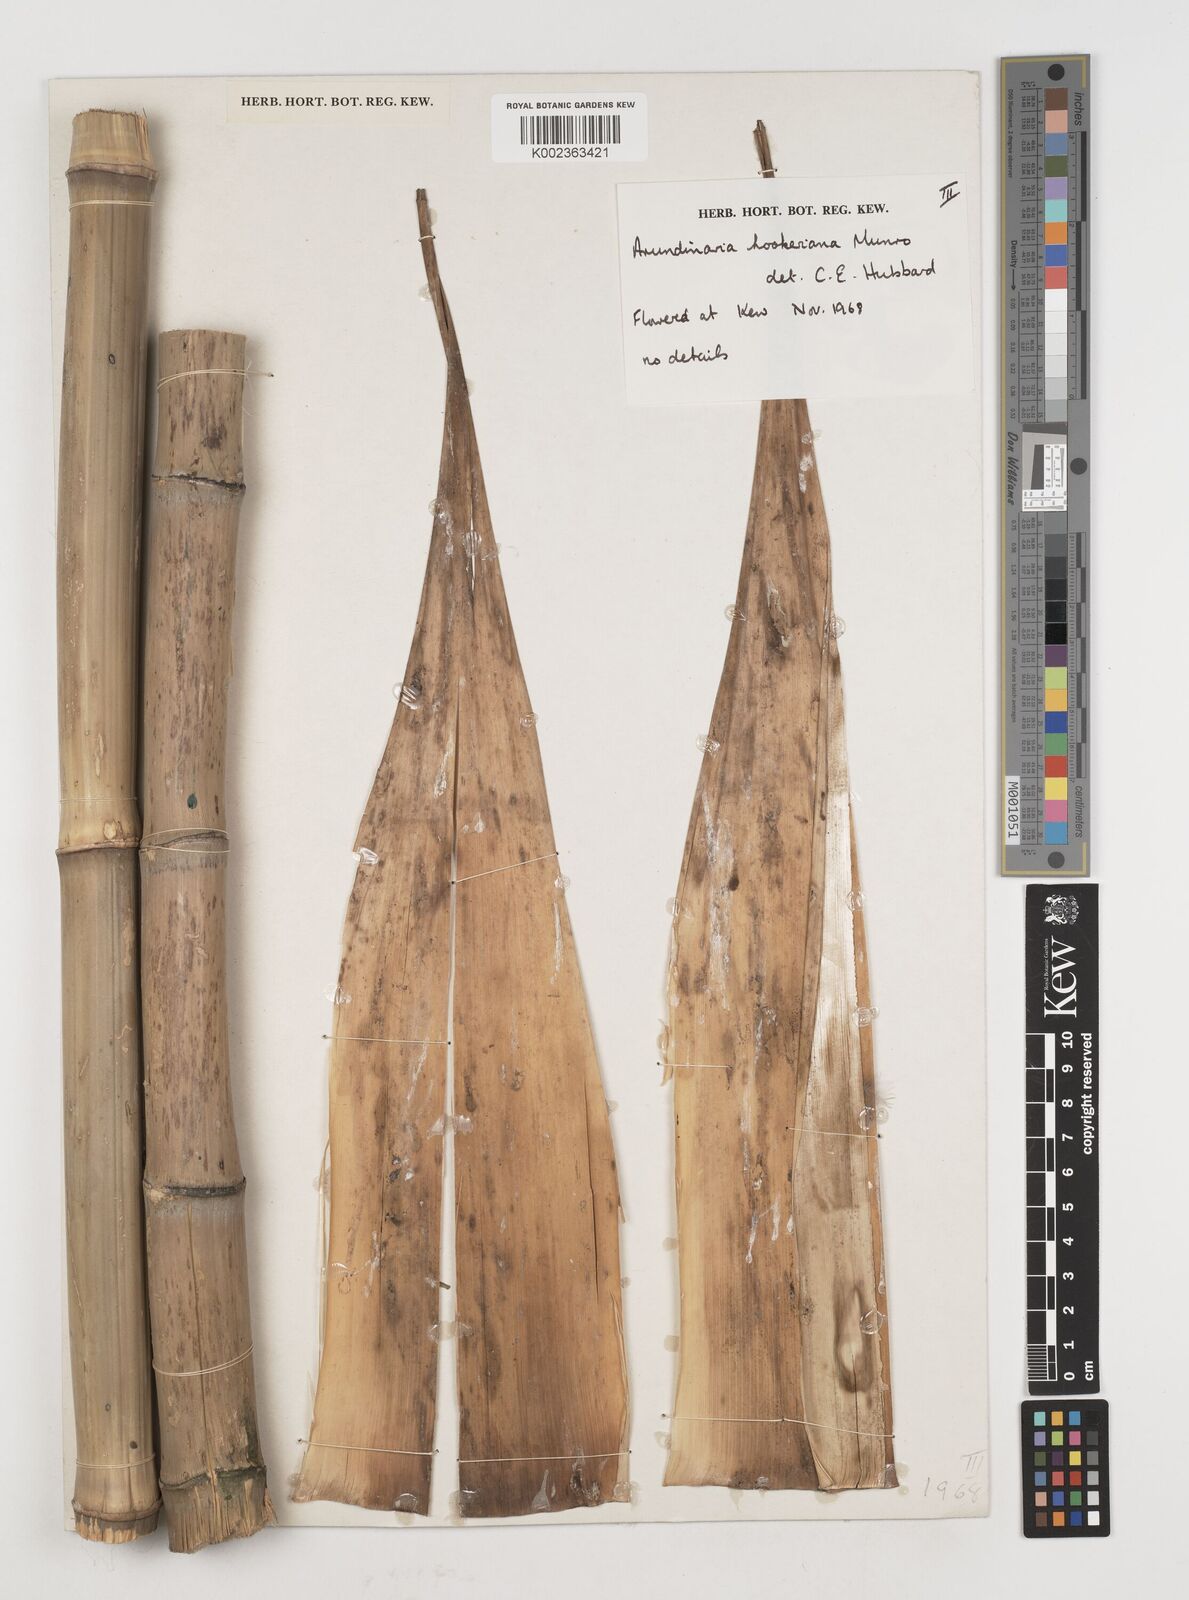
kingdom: Plantae
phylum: Tracheophyta
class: Liliopsida
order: Poales
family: Poaceae
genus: Himalayacalamus
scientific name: Himalayacalamus hookerianus
